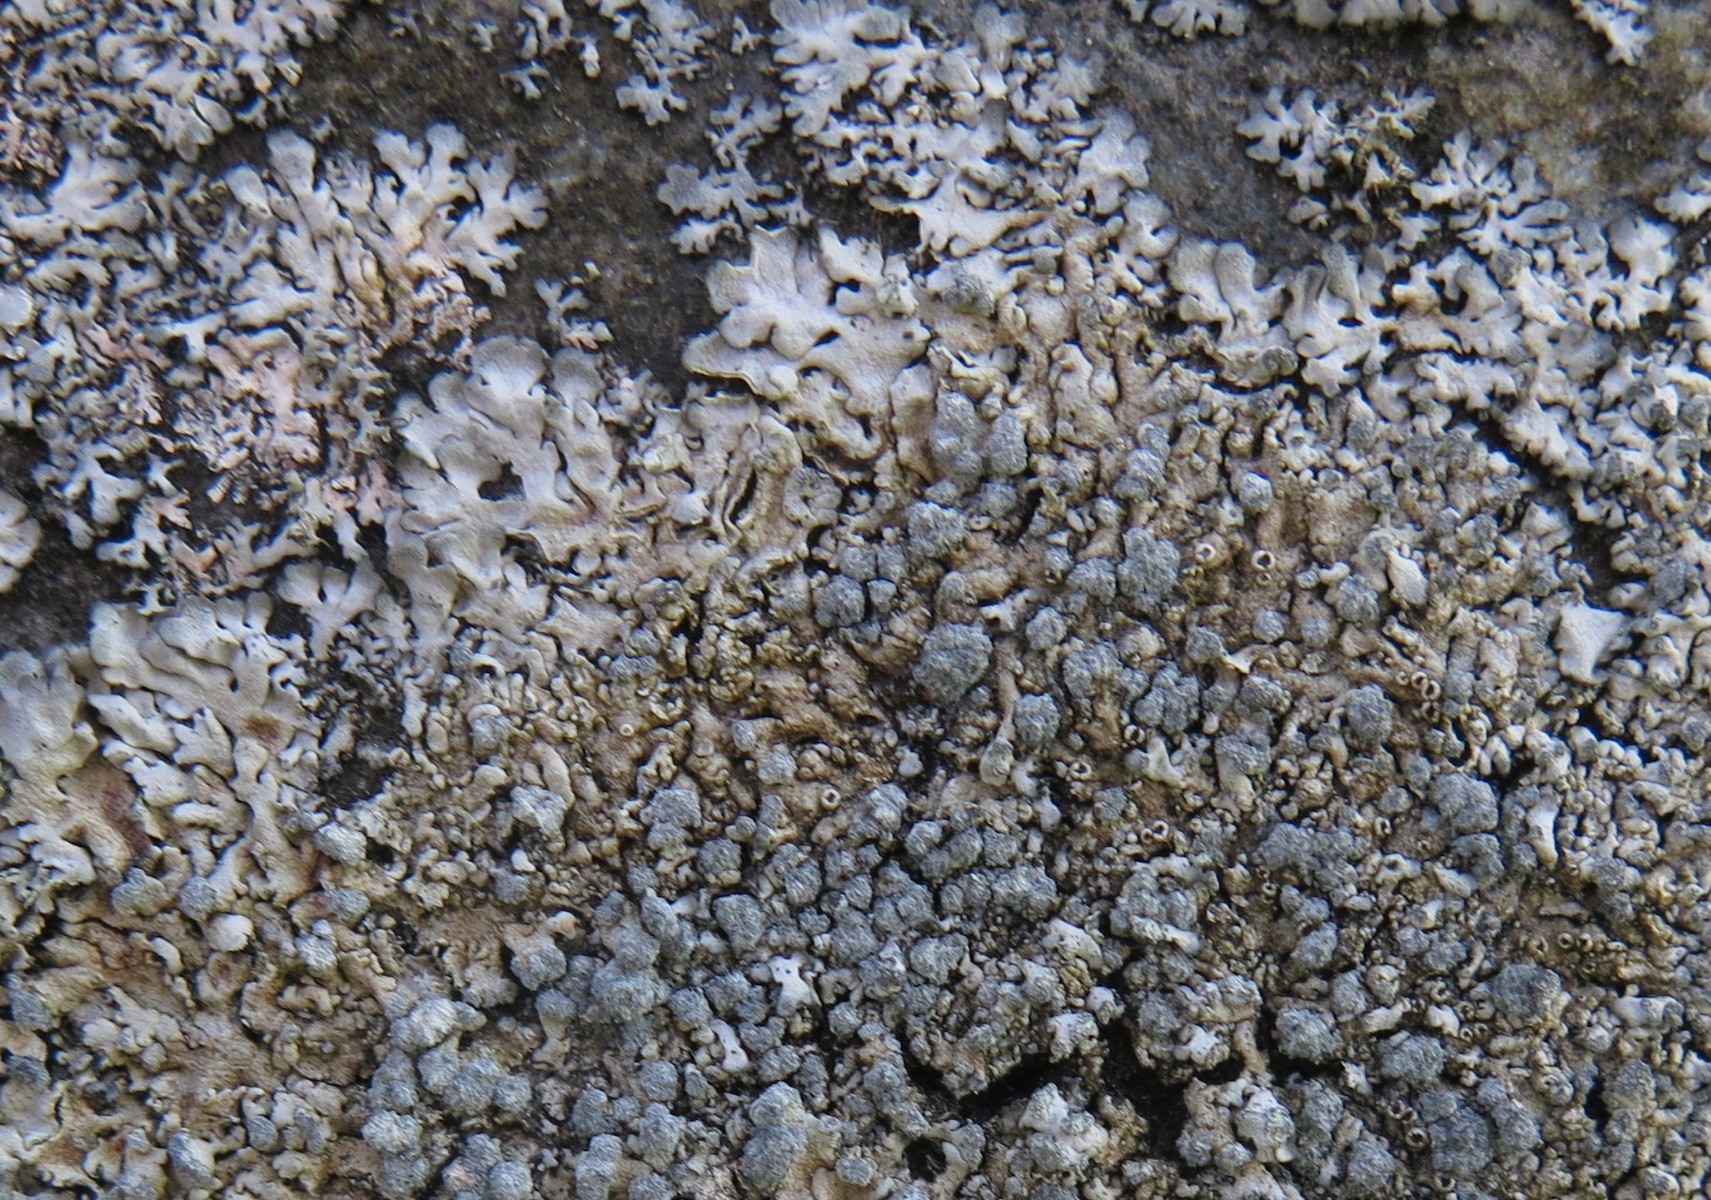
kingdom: Fungi
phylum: Ascomycota
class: Lecanoromycetes
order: Caliciales
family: Physciaceae
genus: Physcia
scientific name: Physcia caesia
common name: blågrå rosetlav
